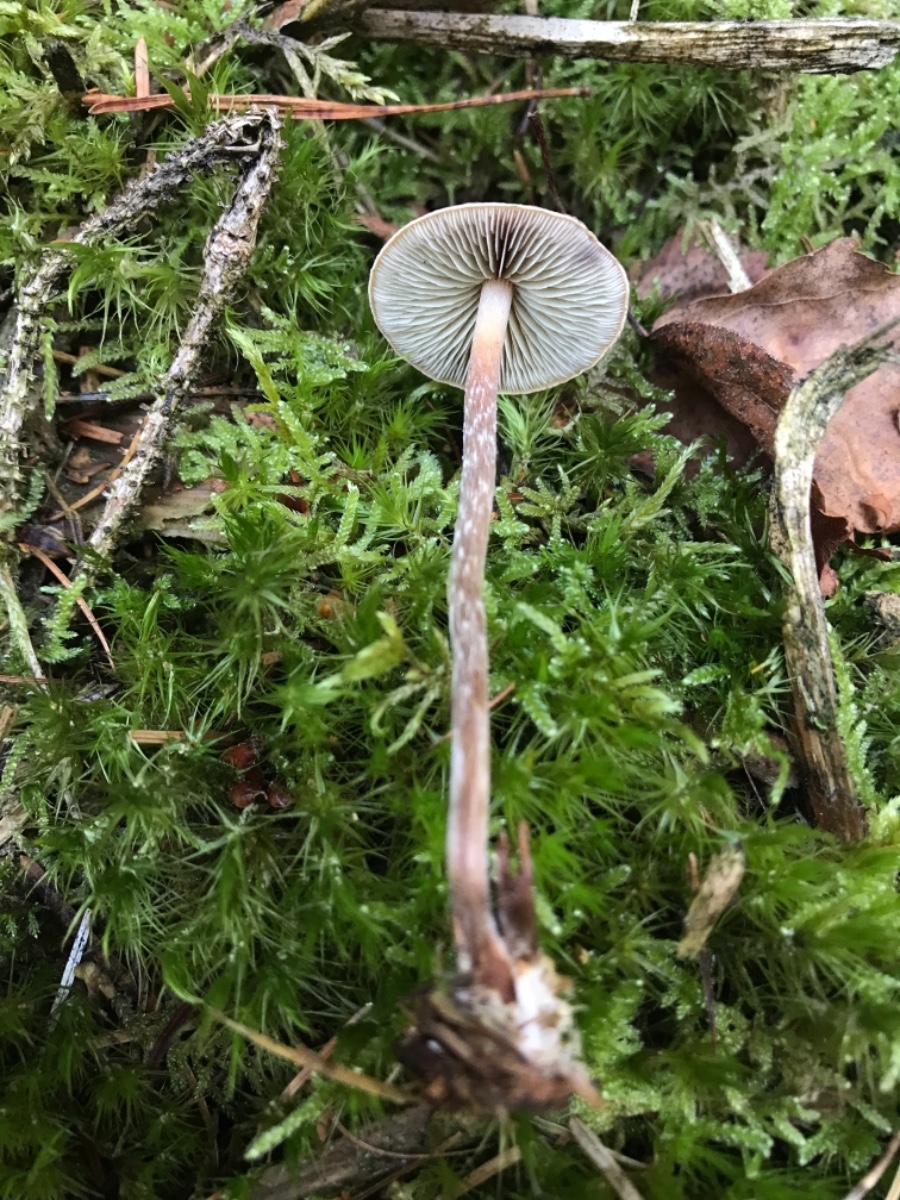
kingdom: Fungi
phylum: Basidiomycota
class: Agaricomycetes
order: Agaricales
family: Strophariaceae
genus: Hypholoma
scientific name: Hypholoma marginatum
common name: enlig svovlhat
